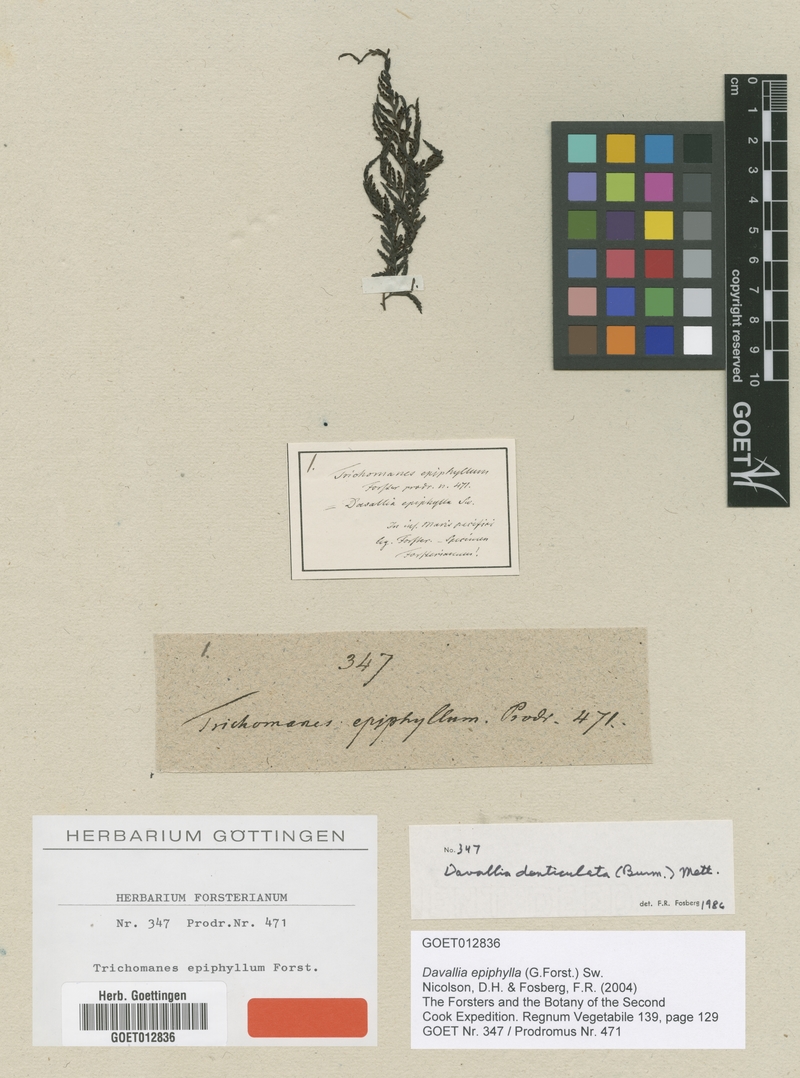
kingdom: Plantae
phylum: Tracheophyta
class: Polypodiopsida
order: Polypodiales
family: Davalliaceae
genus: Davallia
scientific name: Davallia epiphylla
